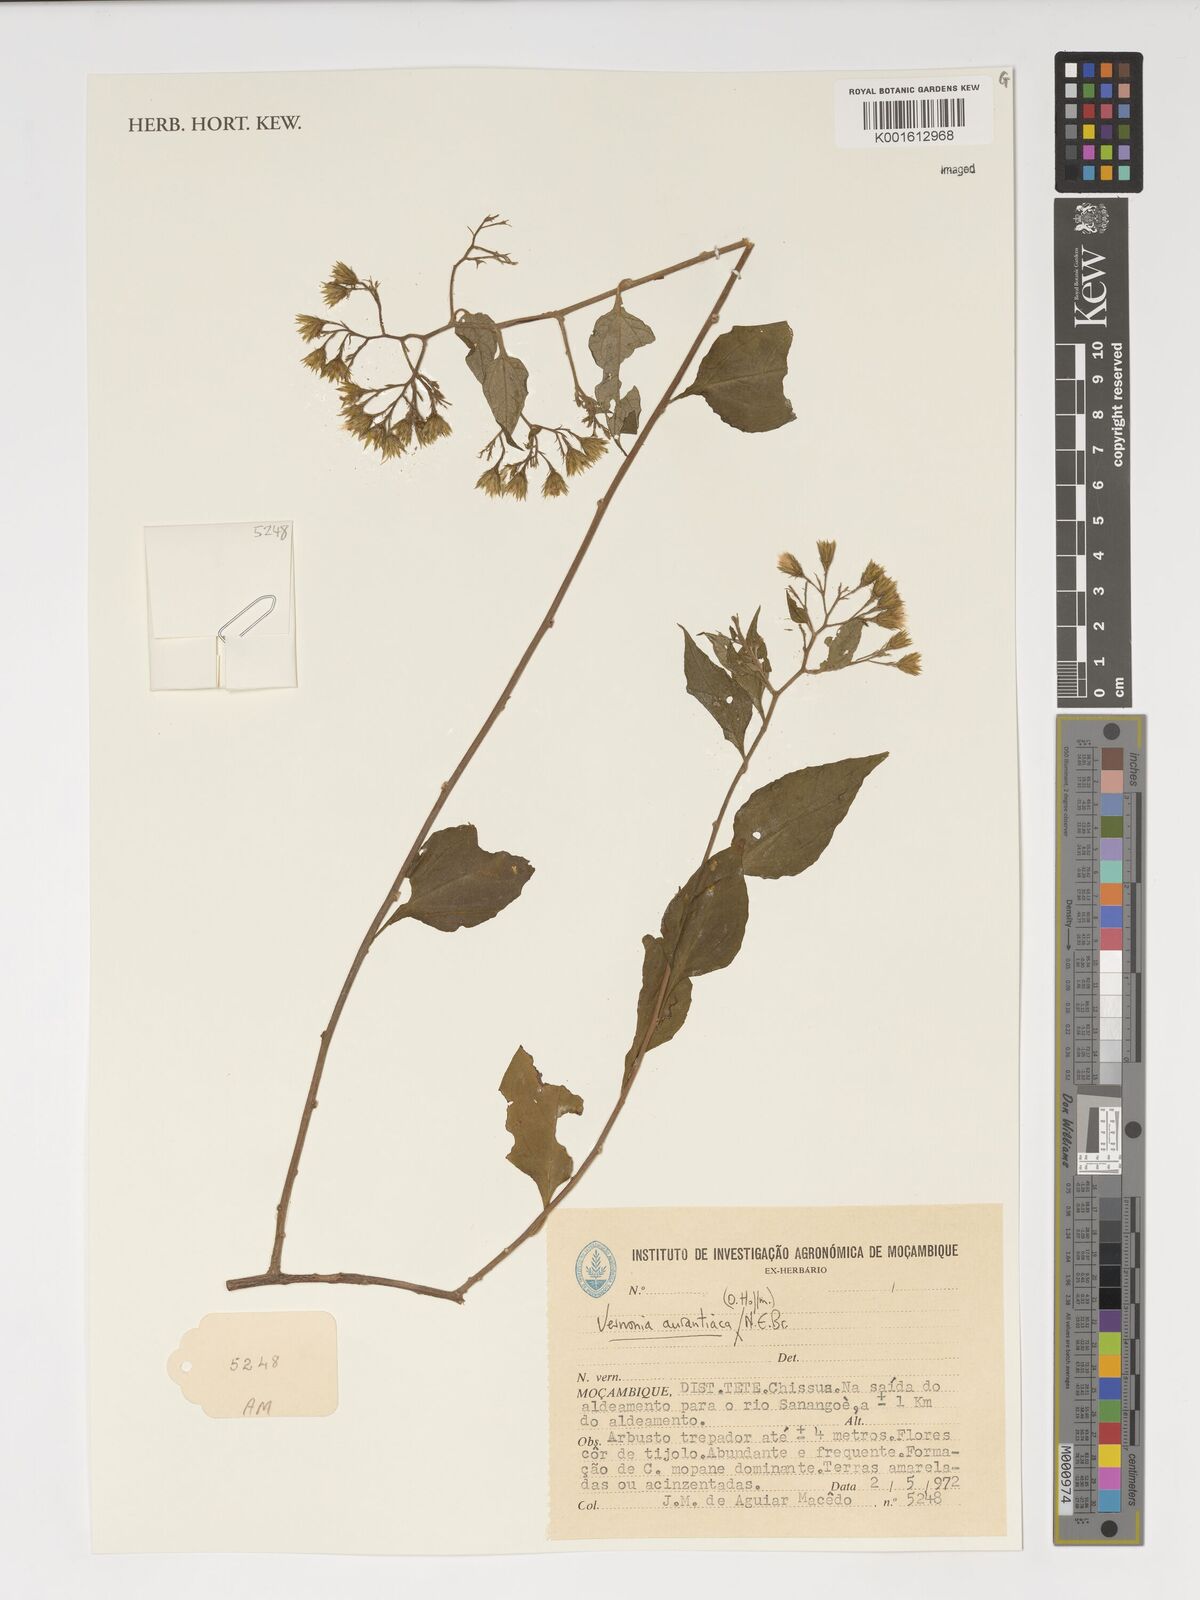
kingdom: Plantae
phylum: Tracheophyta
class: Magnoliopsida
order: Asterales
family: Asteraceae
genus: Distephanus
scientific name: Distephanus divaricatus
